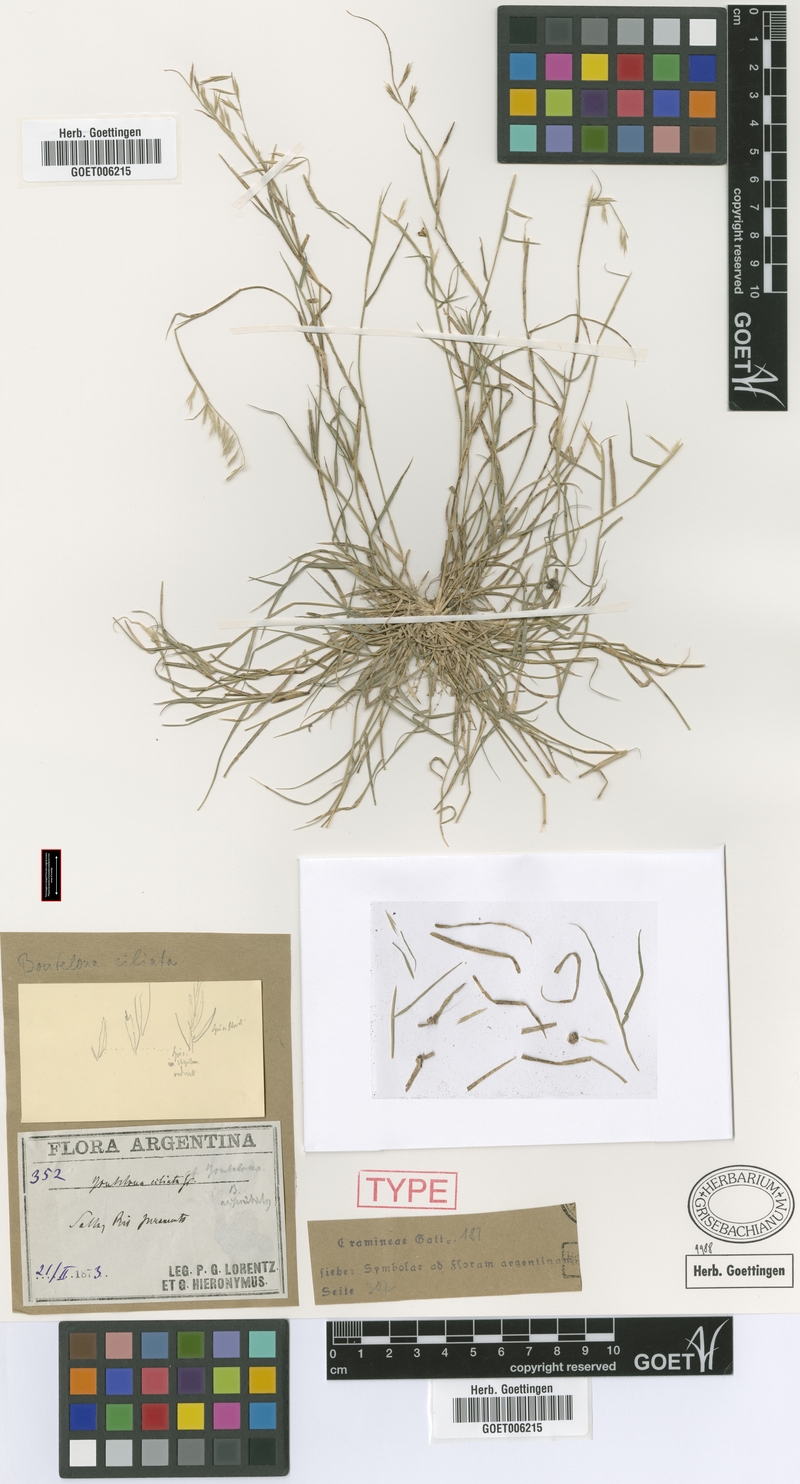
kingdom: Plantae
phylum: Tracheophyta
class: Liliopsida
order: Poales
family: Poaceae
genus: Bouteloua
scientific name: Bouteloua aristidoides
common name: Needle grama
